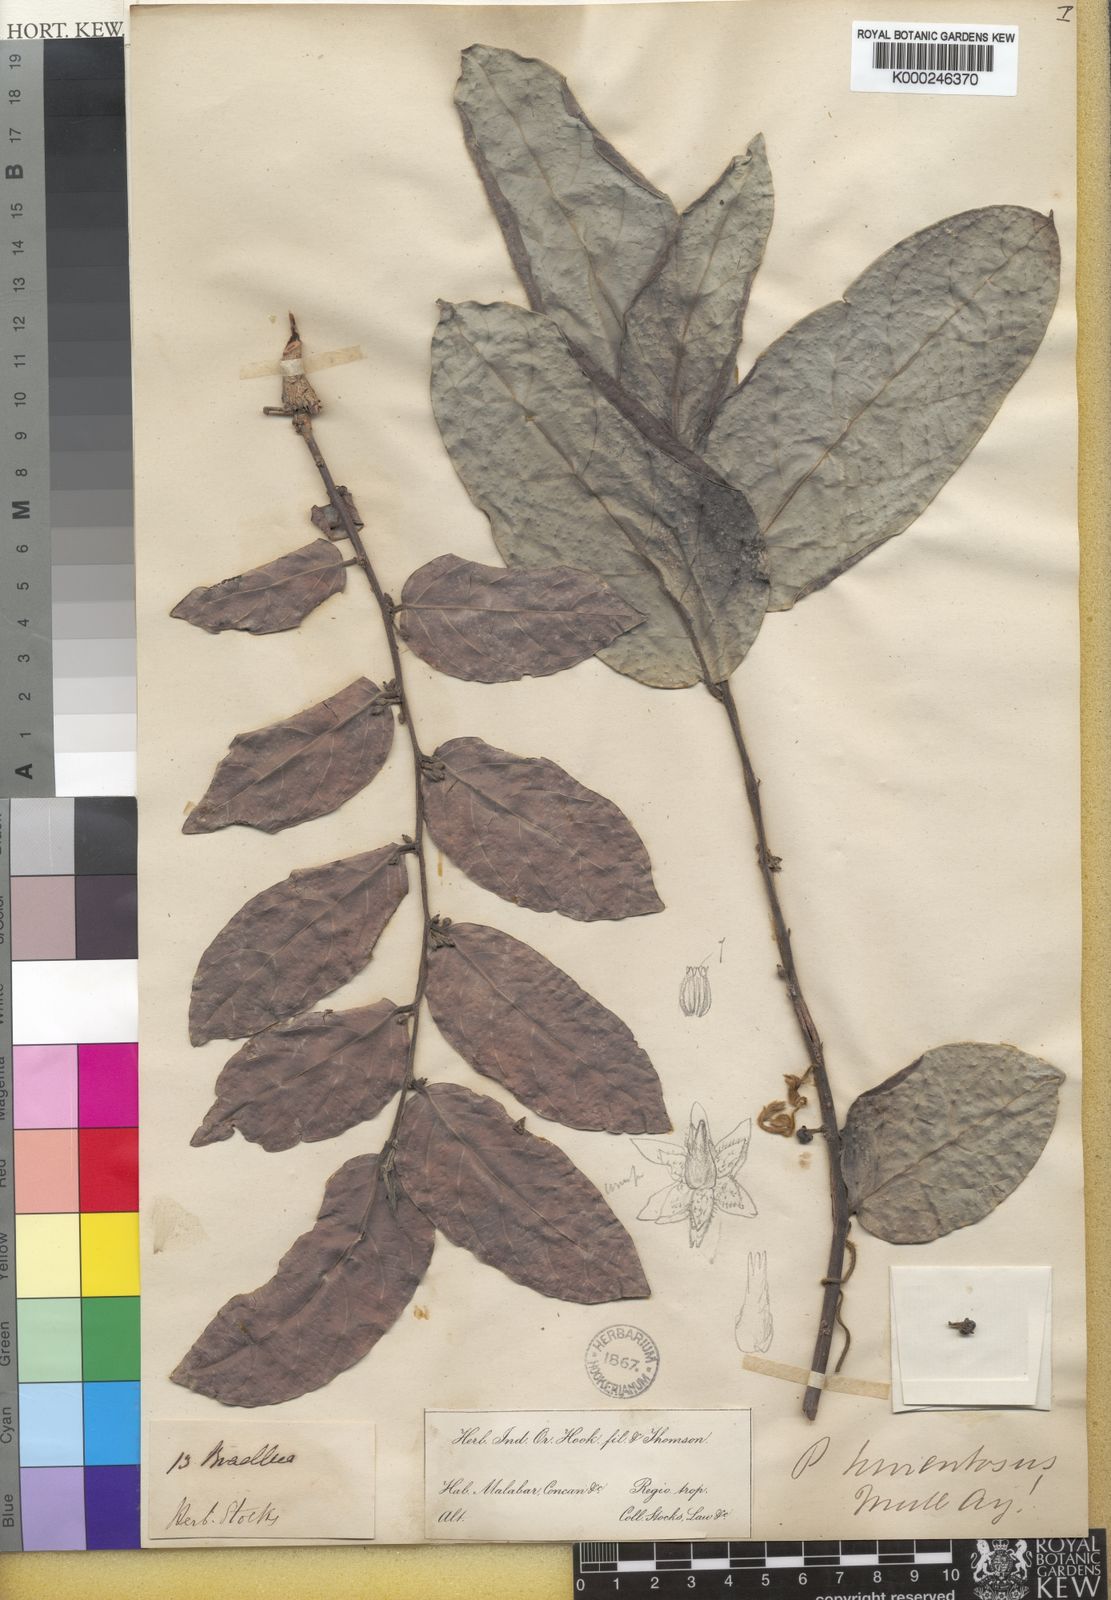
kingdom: Plantae
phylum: Tracheophyta
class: Magnoliopsida
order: Malpighiales
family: Phyllanthaceae
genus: Glochidion
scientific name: Glochidion zeylanicum
